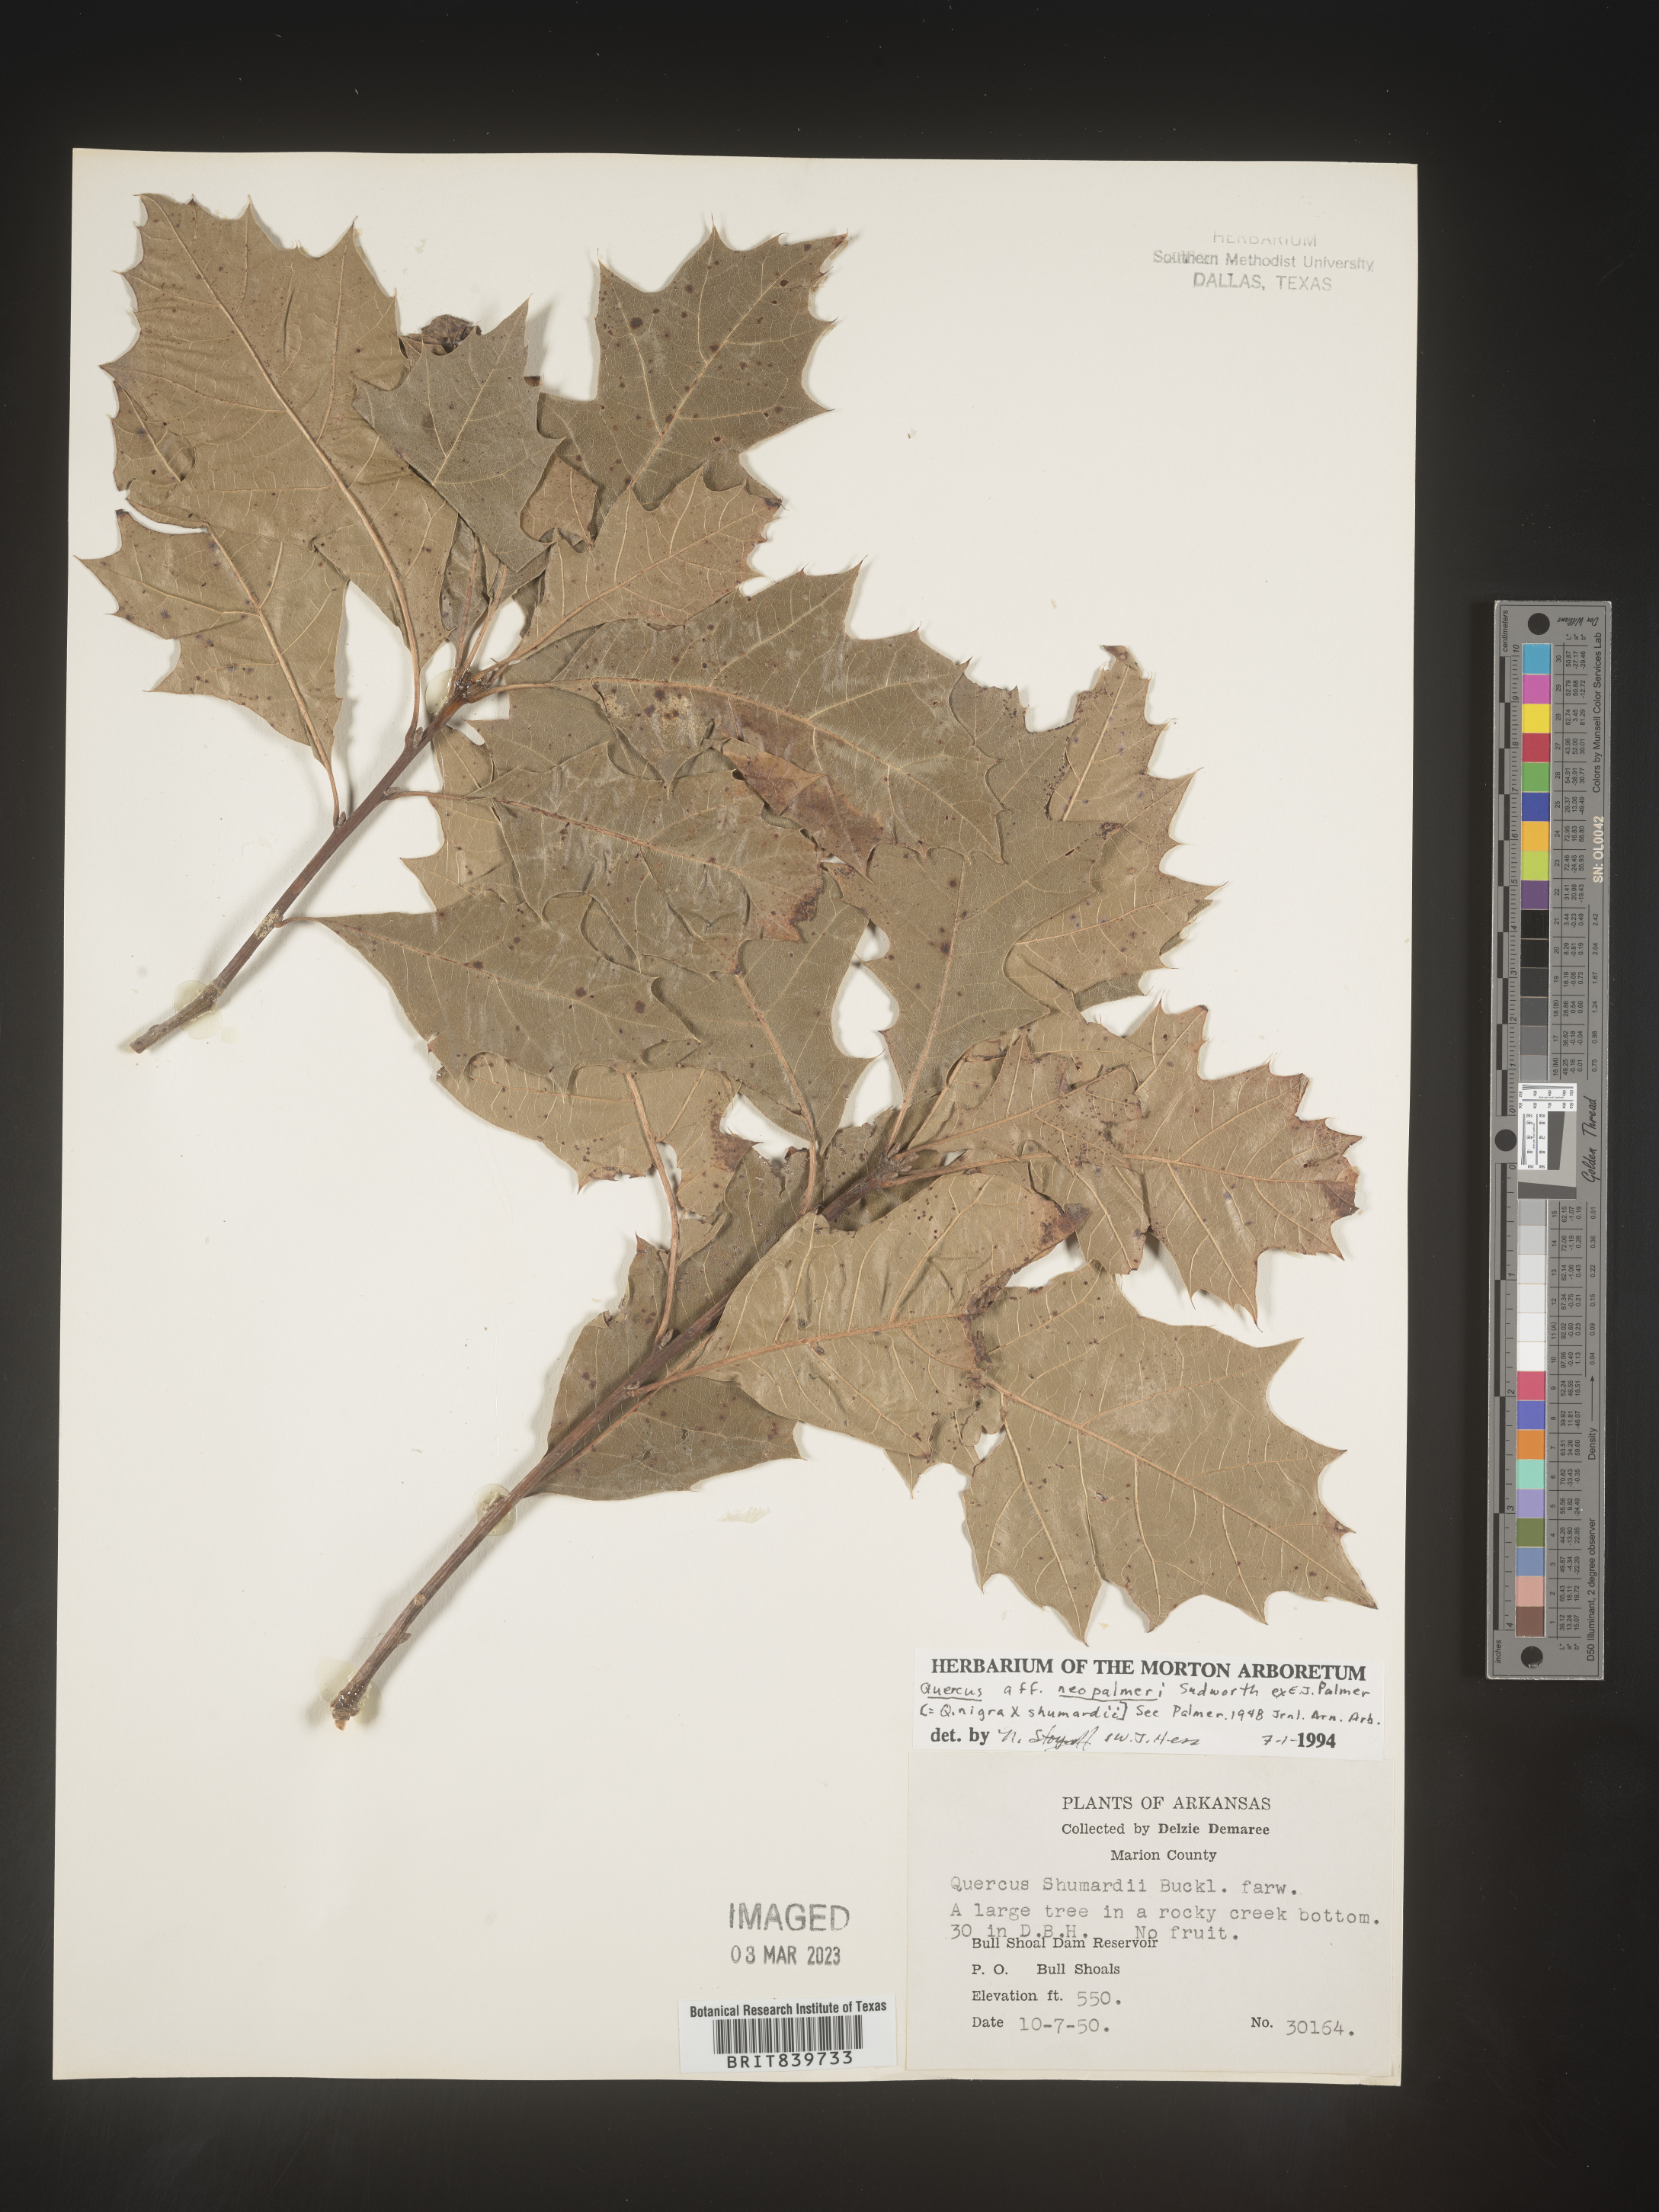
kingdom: Plantae
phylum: Tracheophyta
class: Magnoliopsida
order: Fagales
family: Fagaceae
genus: Quercus
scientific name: Quercus
